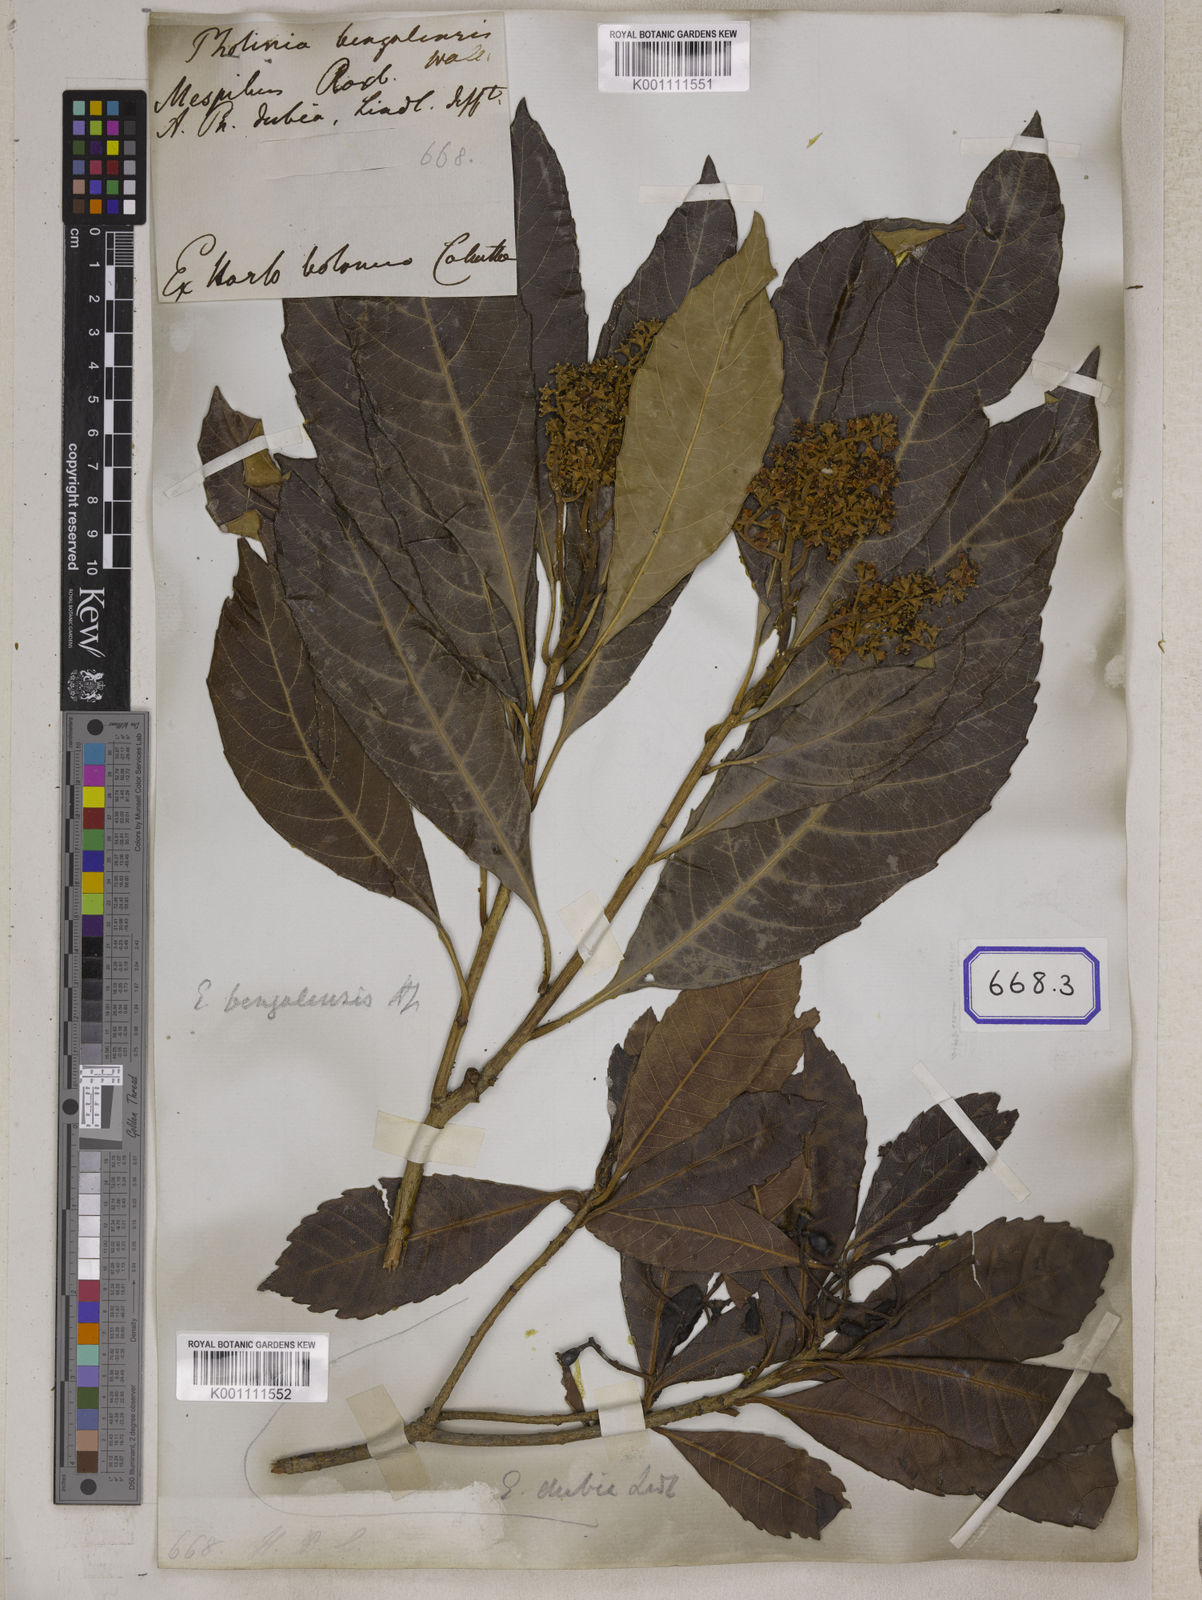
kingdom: Plantae
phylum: Tracheophyta
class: Magnoliopsida
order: Rosales
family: Rosaceae
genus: Rhaphiolepis
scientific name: Rhaphiolepis dubia
